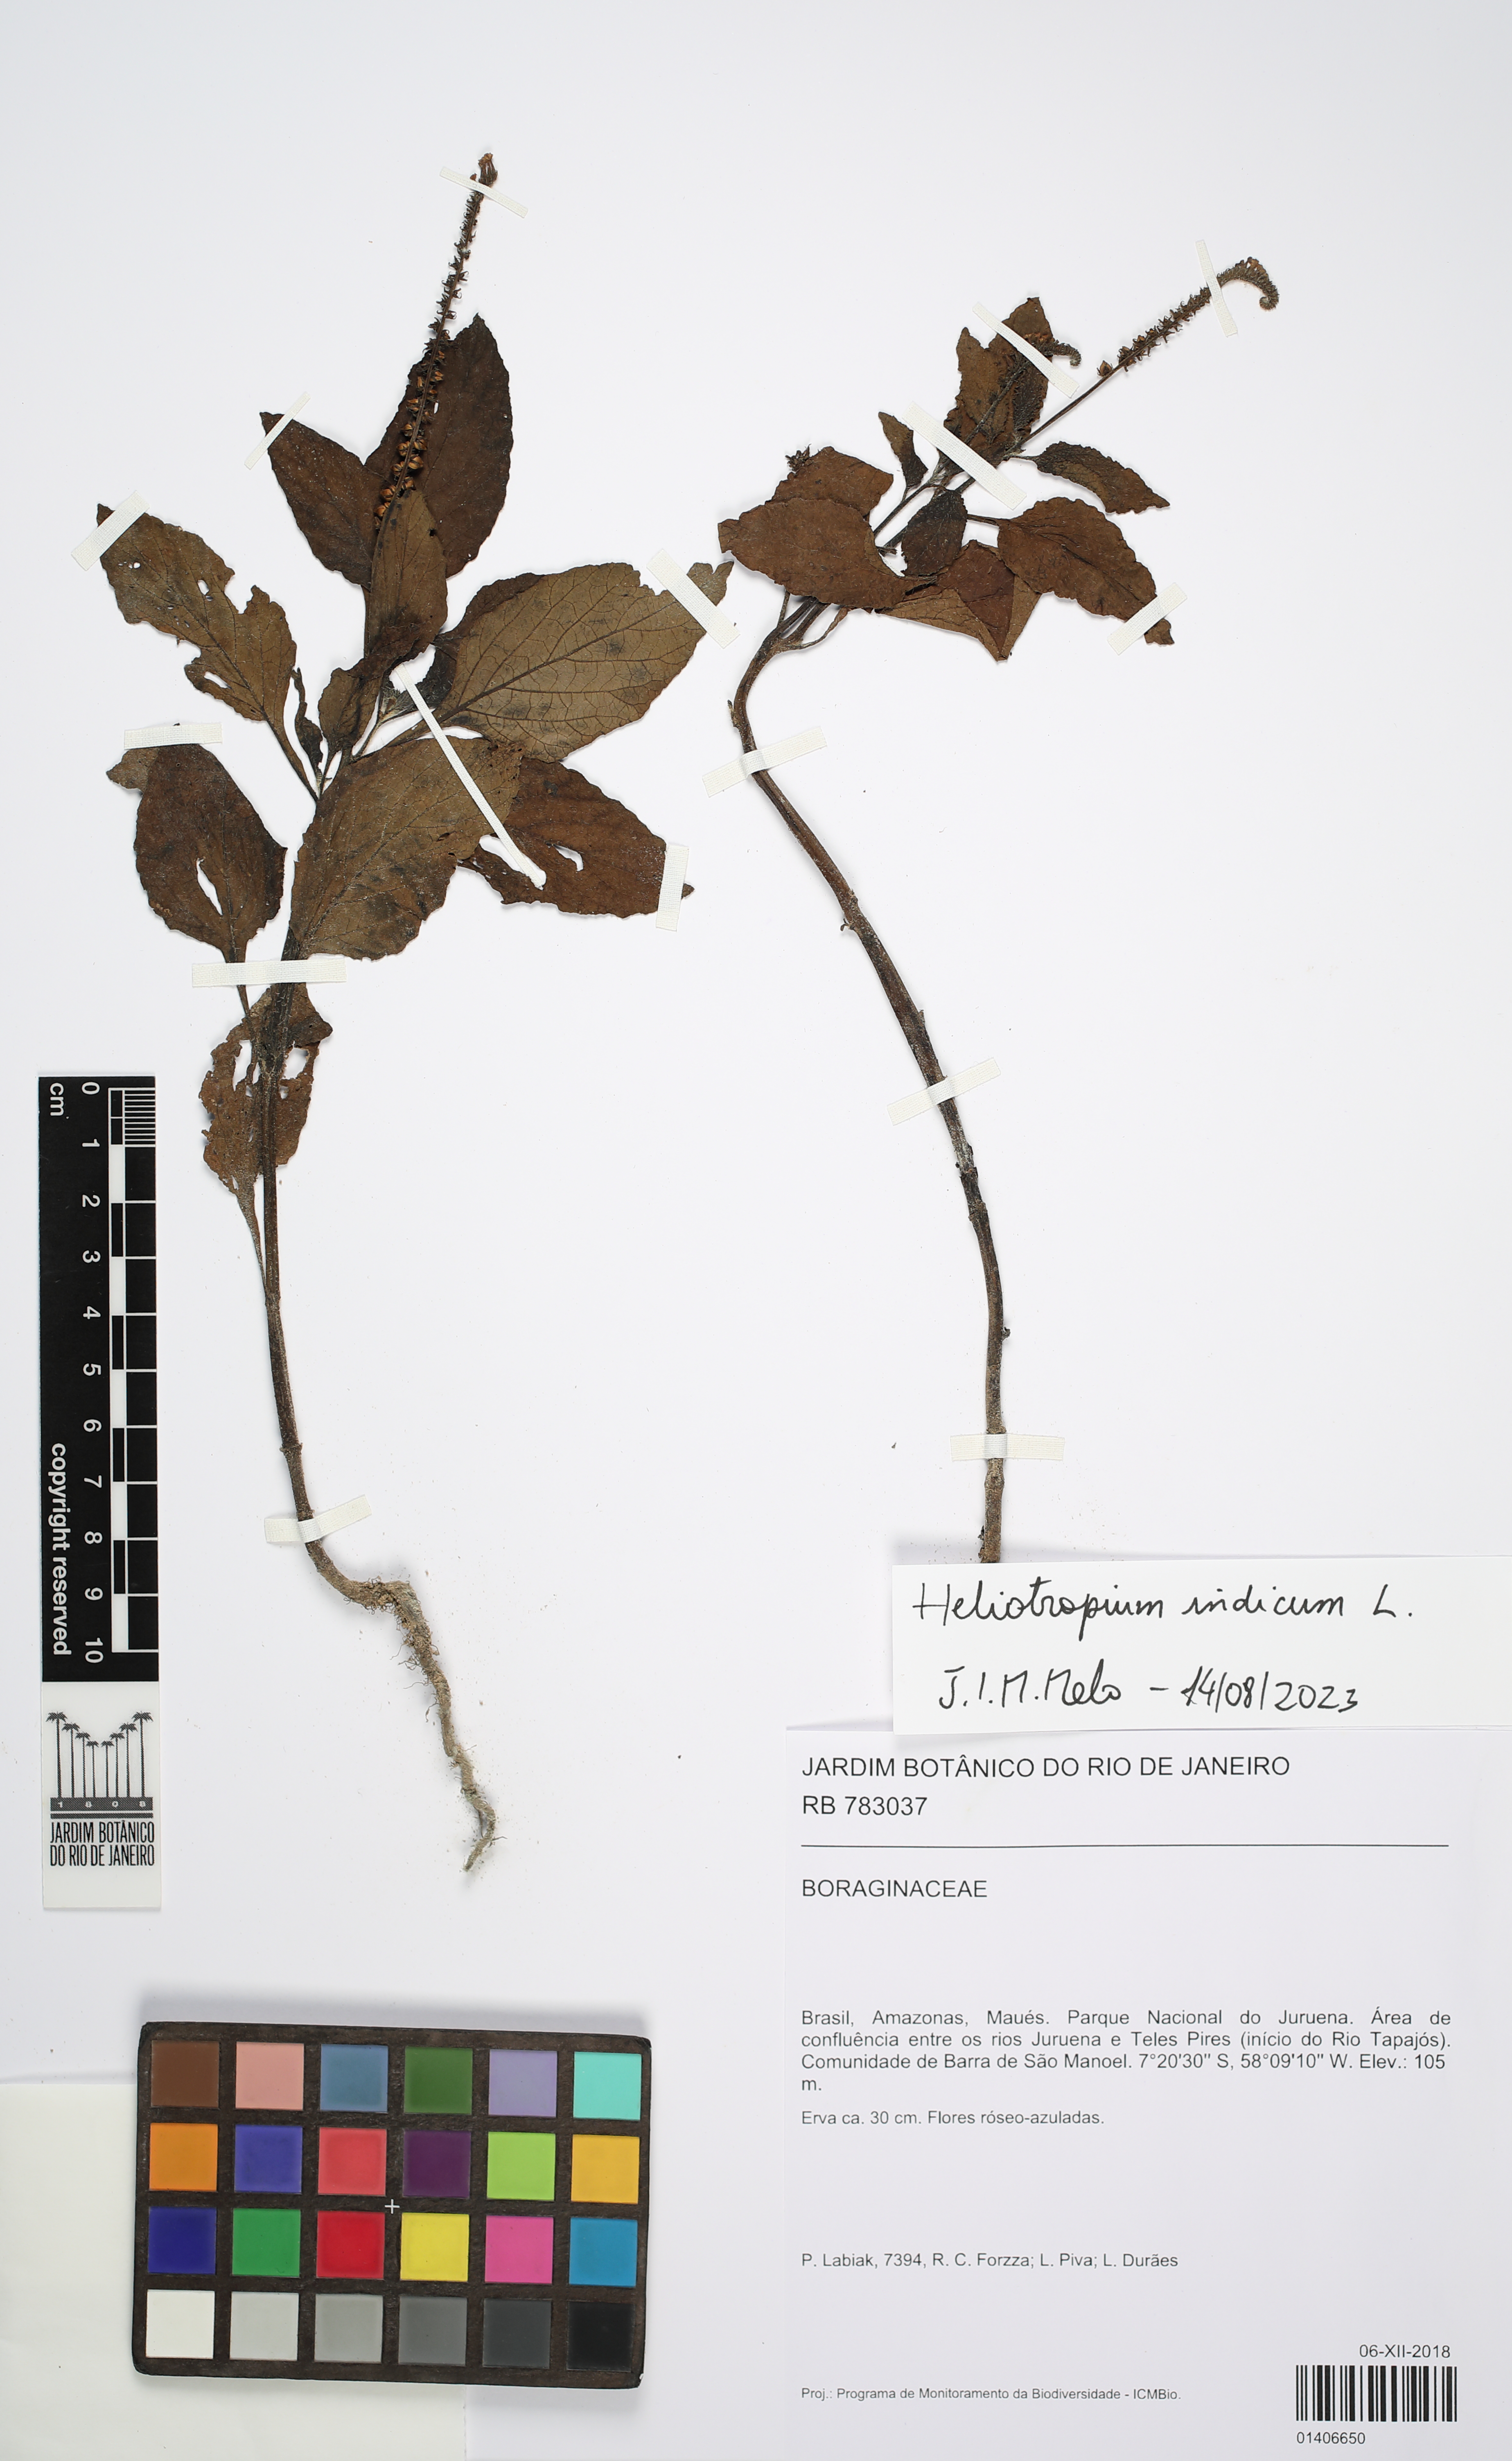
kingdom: Plantae
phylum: Tracheophyta
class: Magnoliopsida
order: Boraginales
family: Heliotropiaceae
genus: Heliotropium
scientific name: Heliotropium indicum
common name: Indian heliotrope
